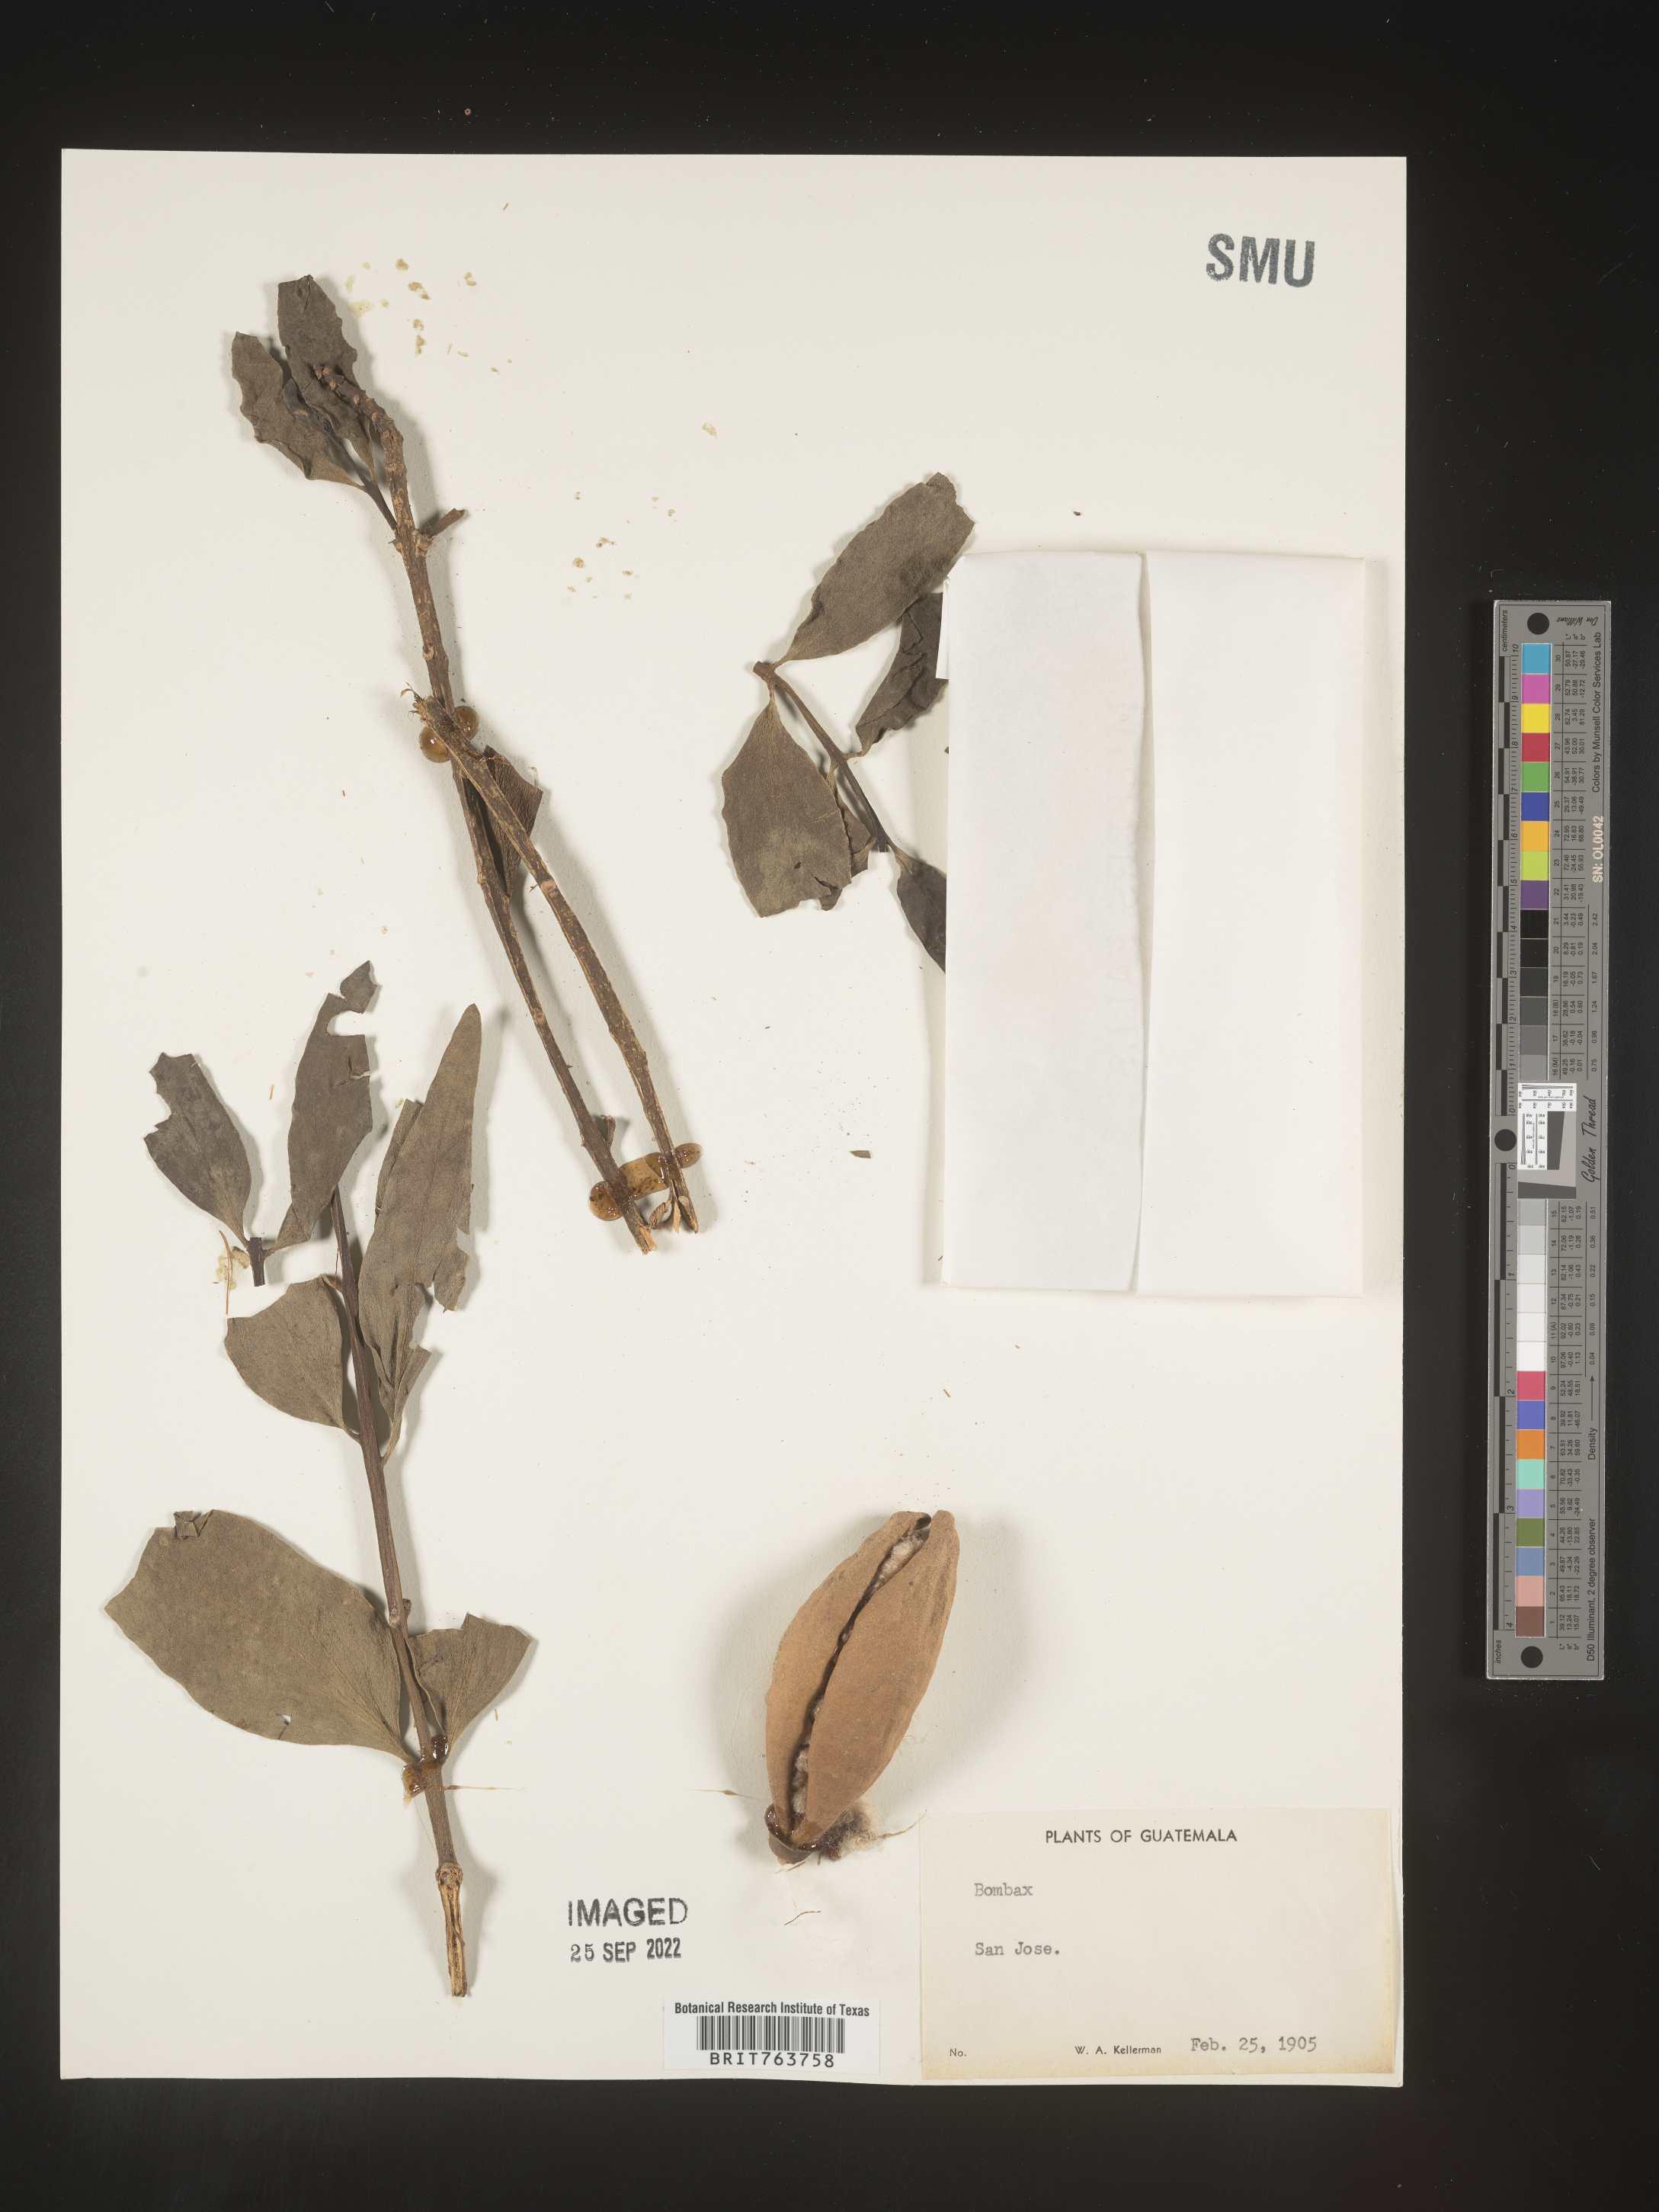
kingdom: Plantae
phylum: Tracheophyta
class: Magnoliopsida
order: Malvales
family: Malvaceae
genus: Bombax
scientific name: Bombax
